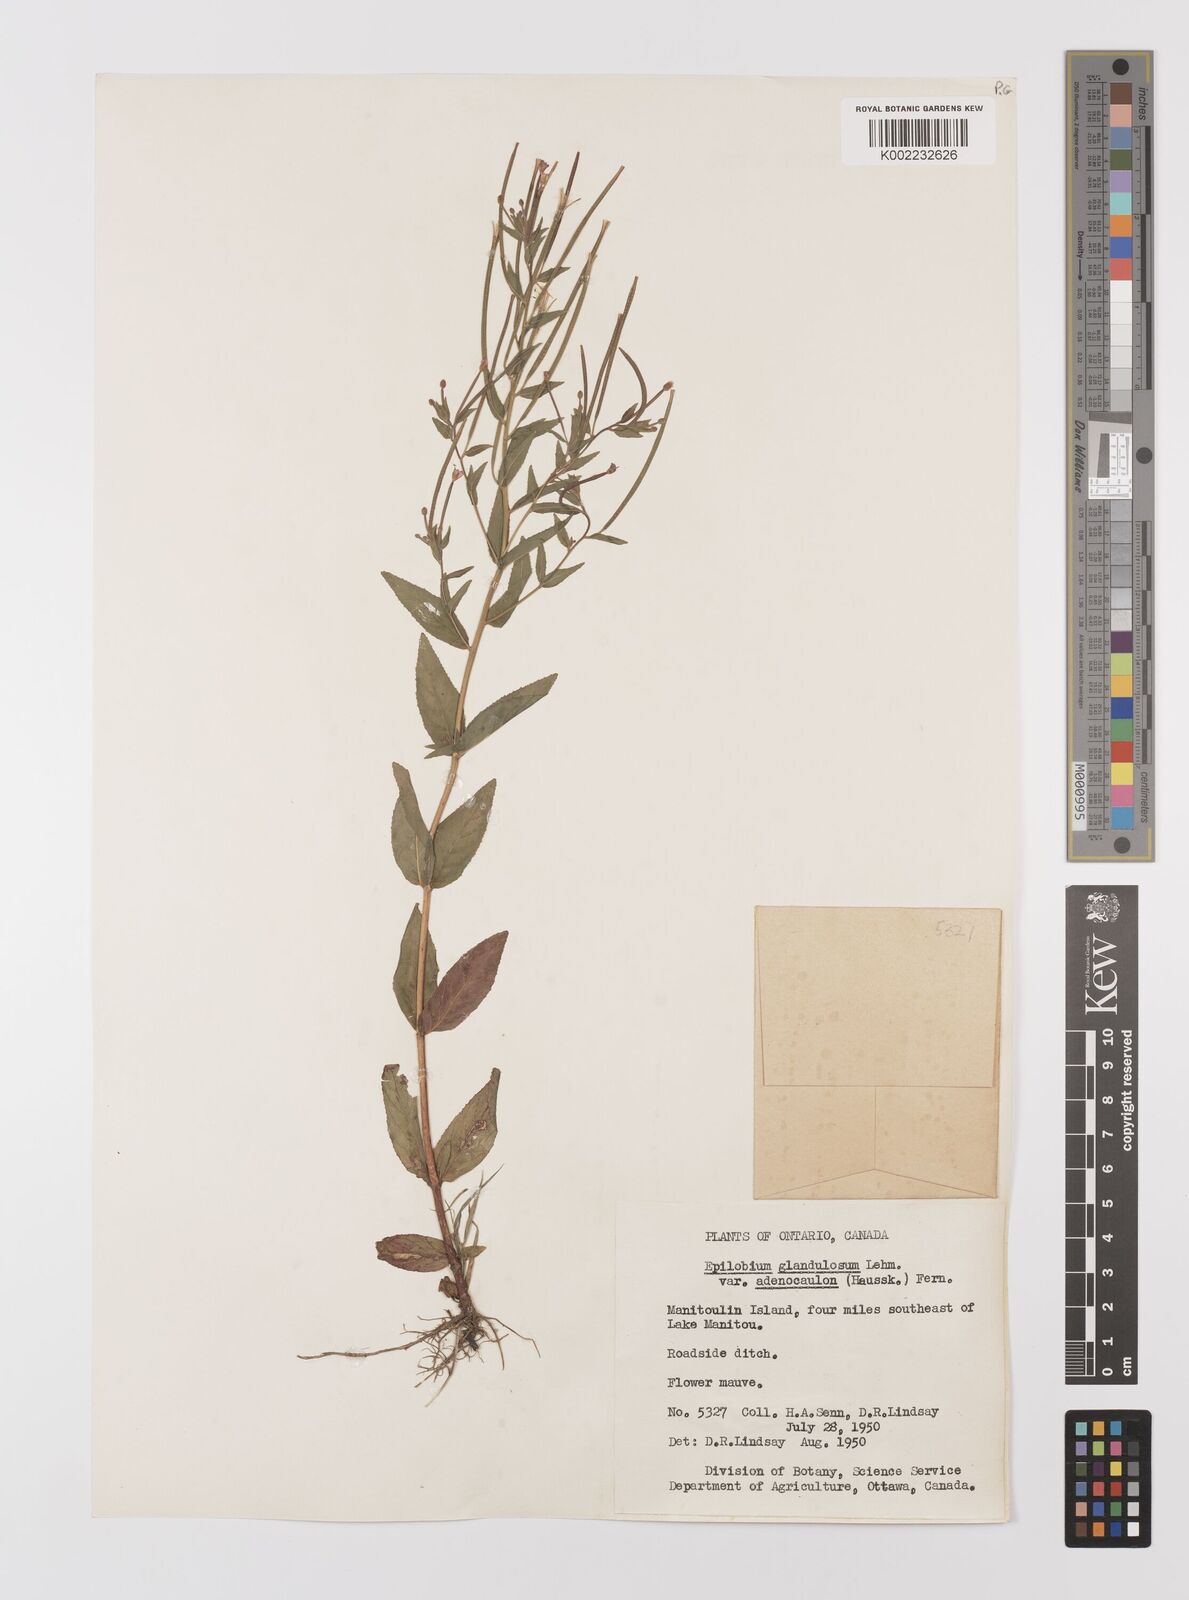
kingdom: Plantae
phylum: Tracheophyta
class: Magnoliopsida
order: Myrtales
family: Onagraceae
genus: Epilobium
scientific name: Epilobium ciliatum
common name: American willowherb
